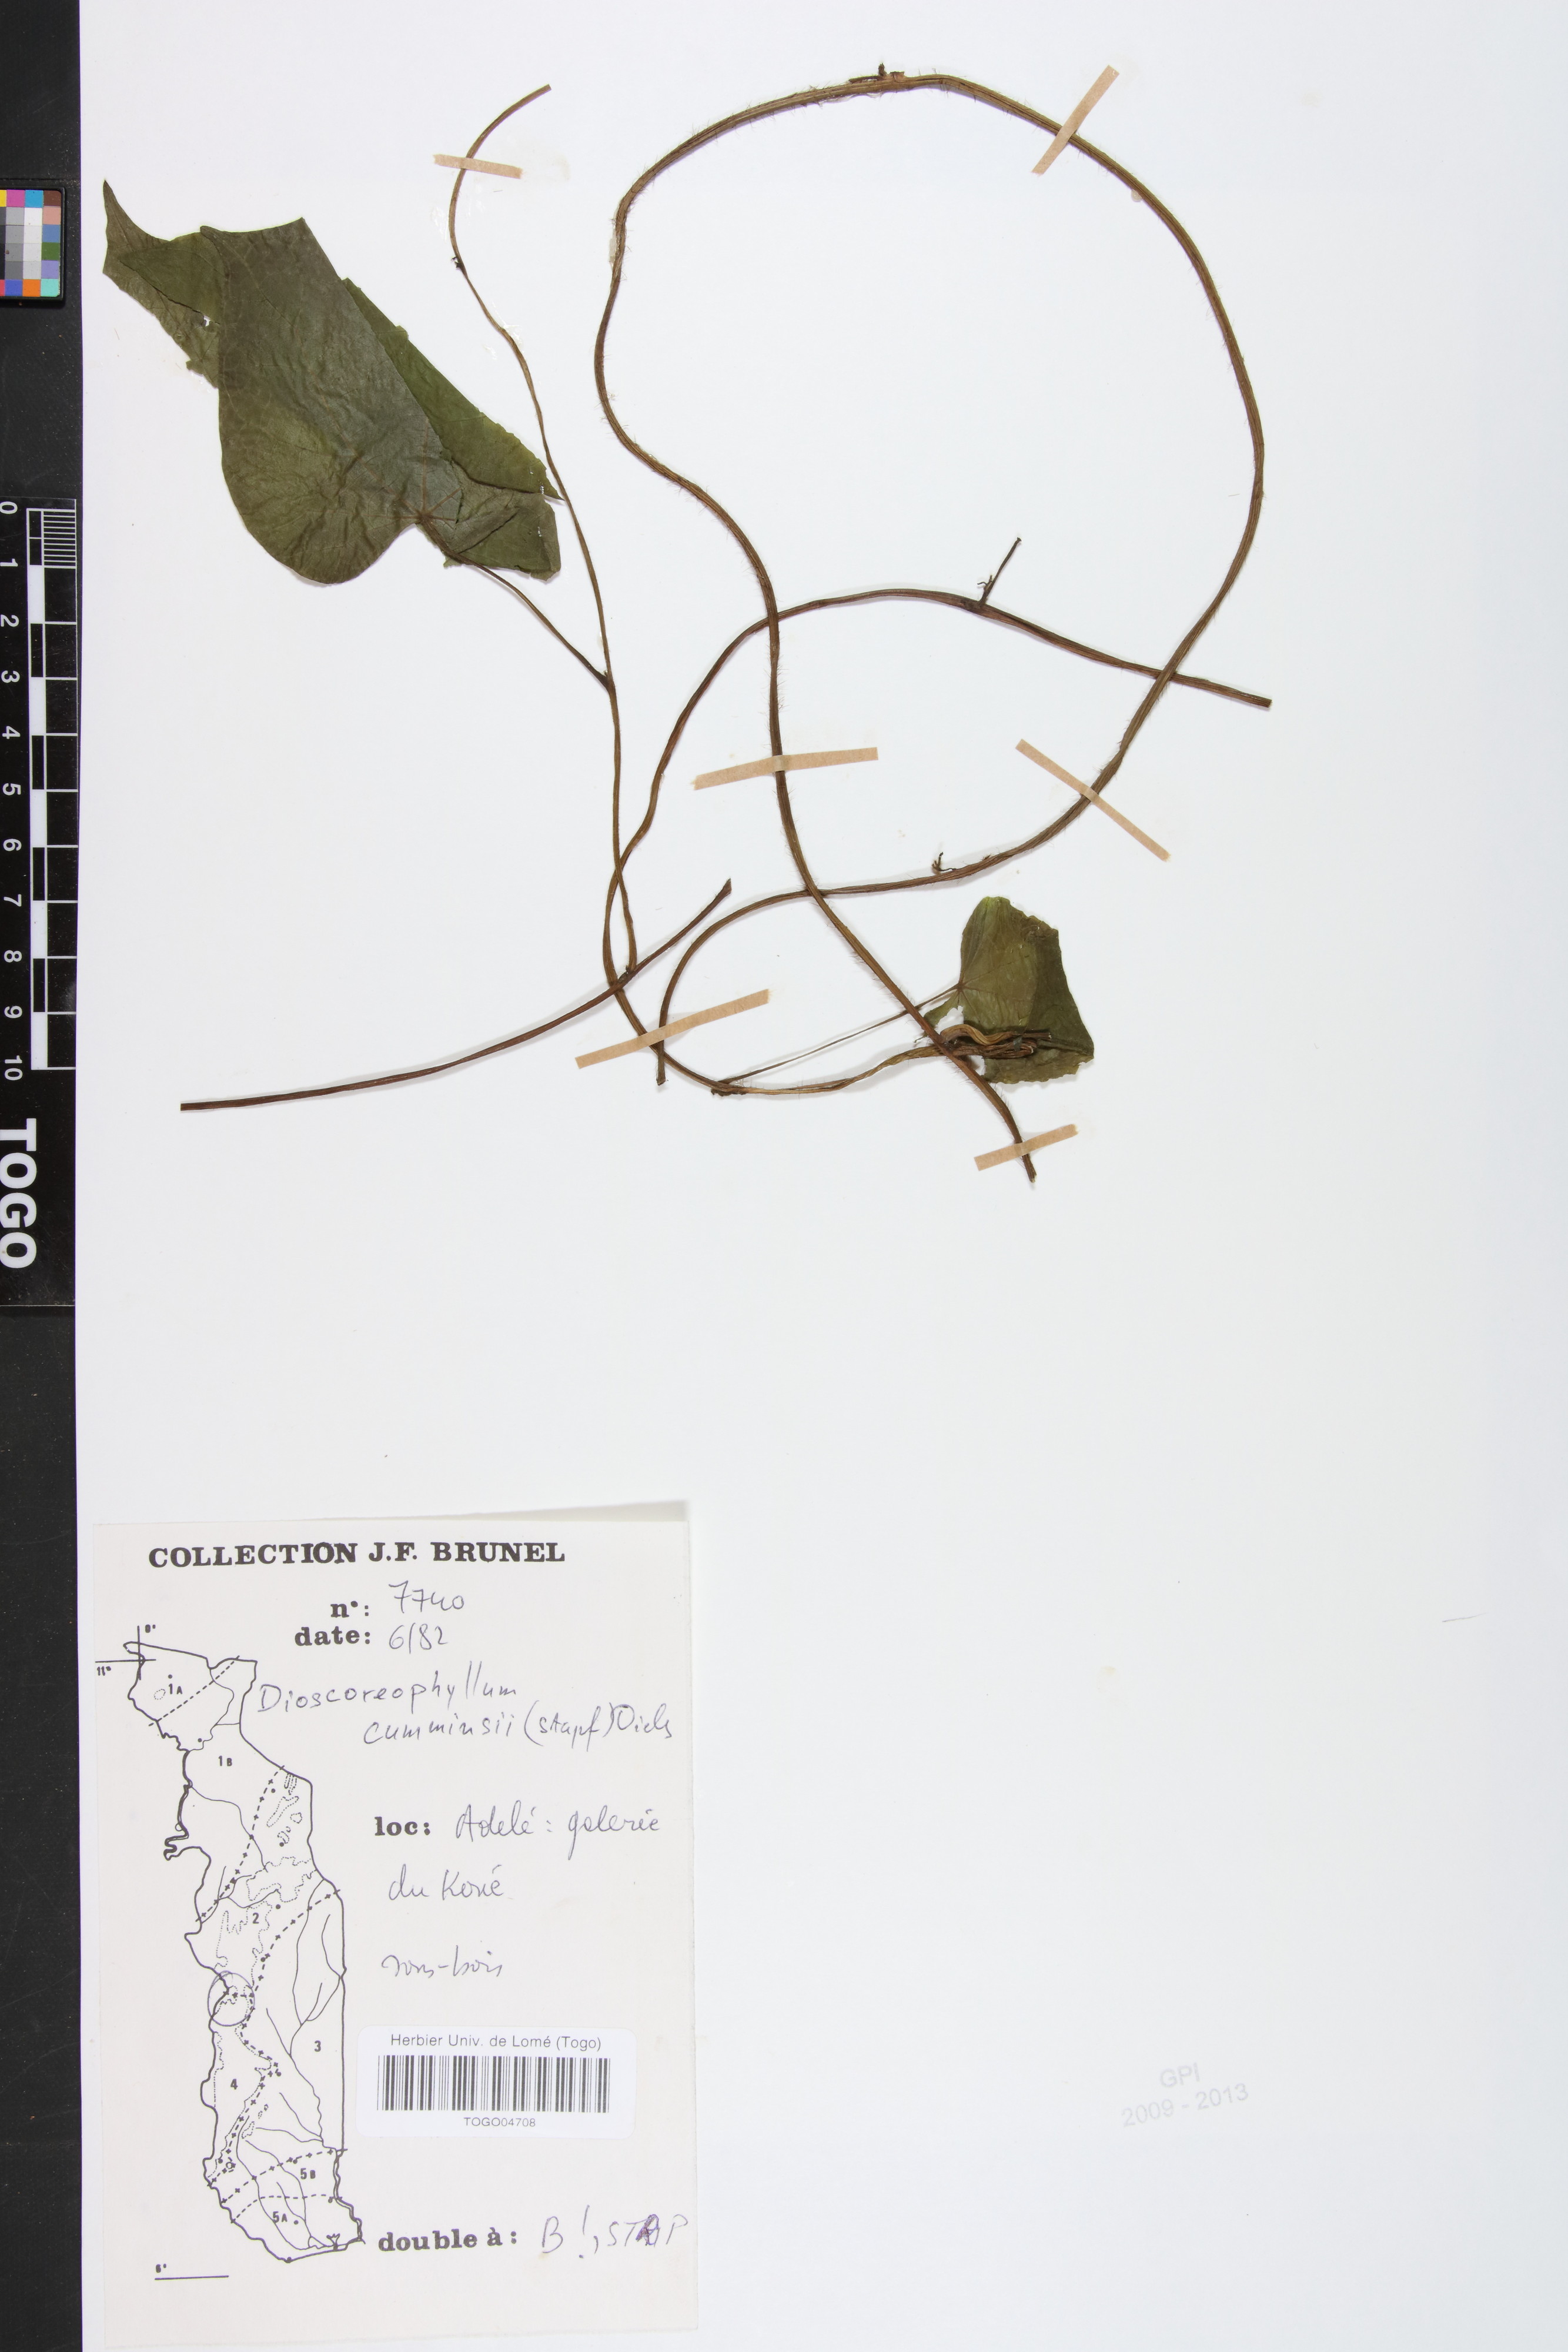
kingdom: Plantae
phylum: Tracheophyta
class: Magnoliopsida
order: Ranunculales
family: Menispermaceae
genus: Dioscoreophyllum
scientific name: Dioscoreophyllum volkensii
